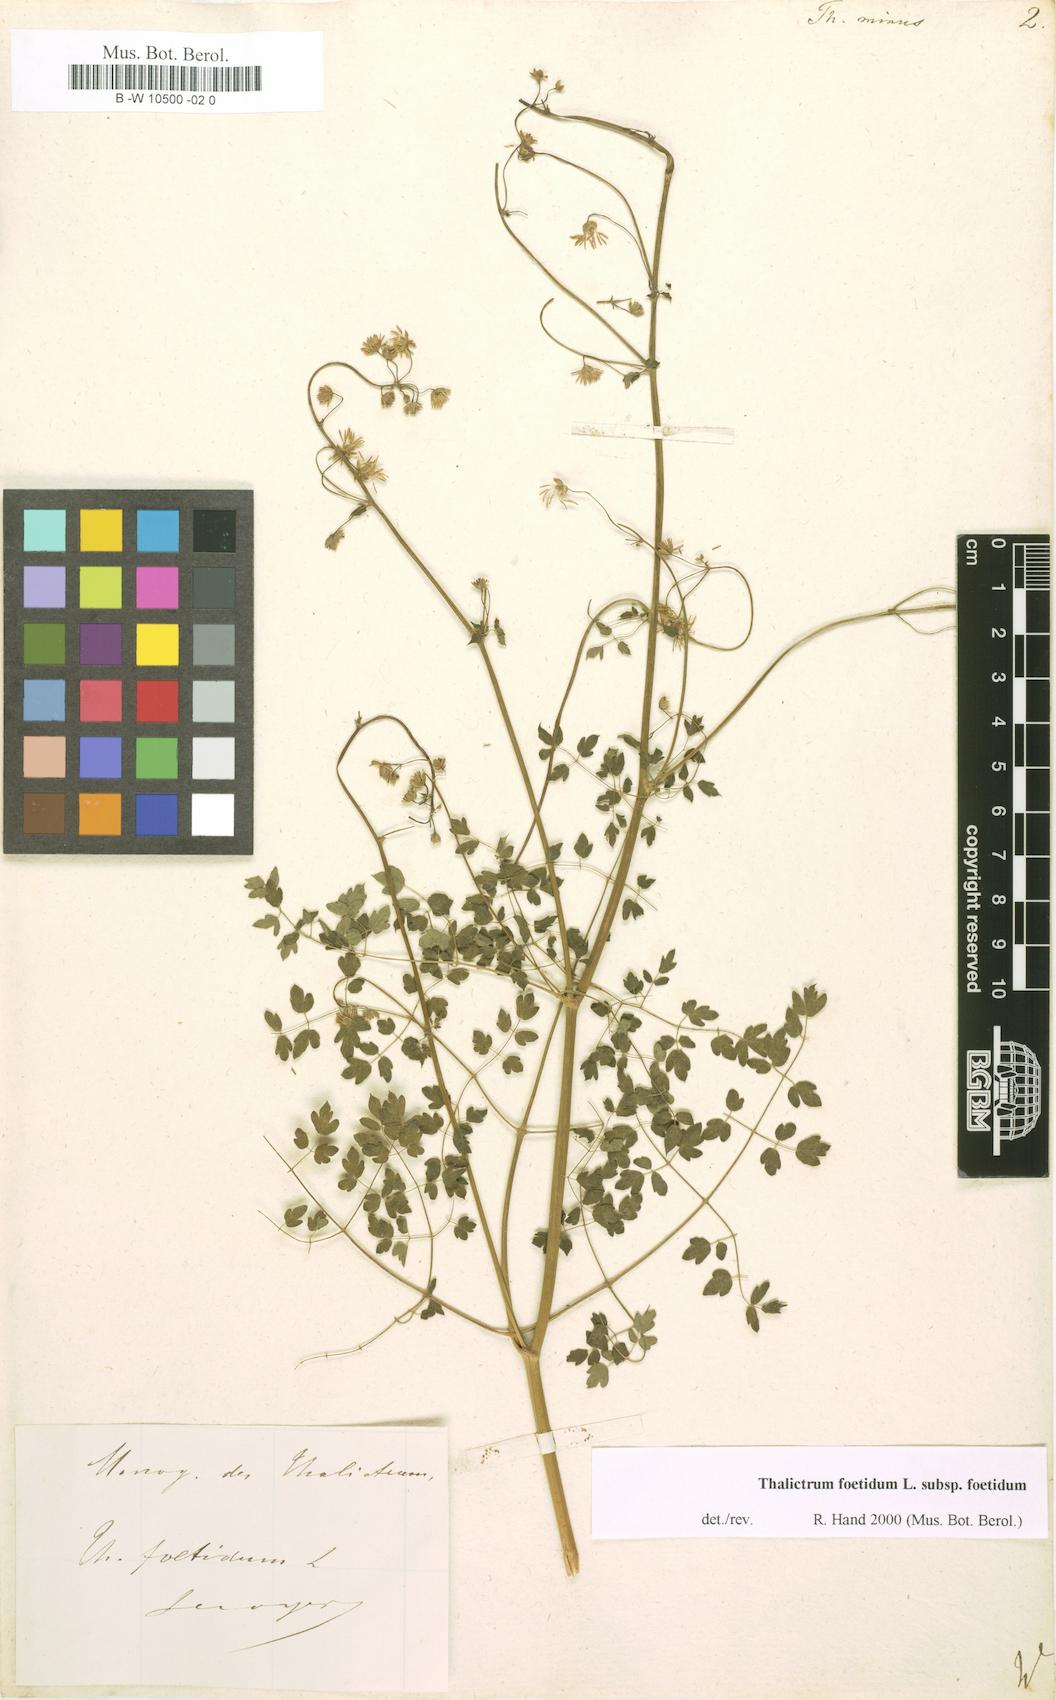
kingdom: Plantae
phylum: Tracheophyta
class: Magnoliopsida
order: Ranunculales
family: Ranunculaceae
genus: Thalictrum
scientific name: Thalictrum minus
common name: Lesser meadow-rue
